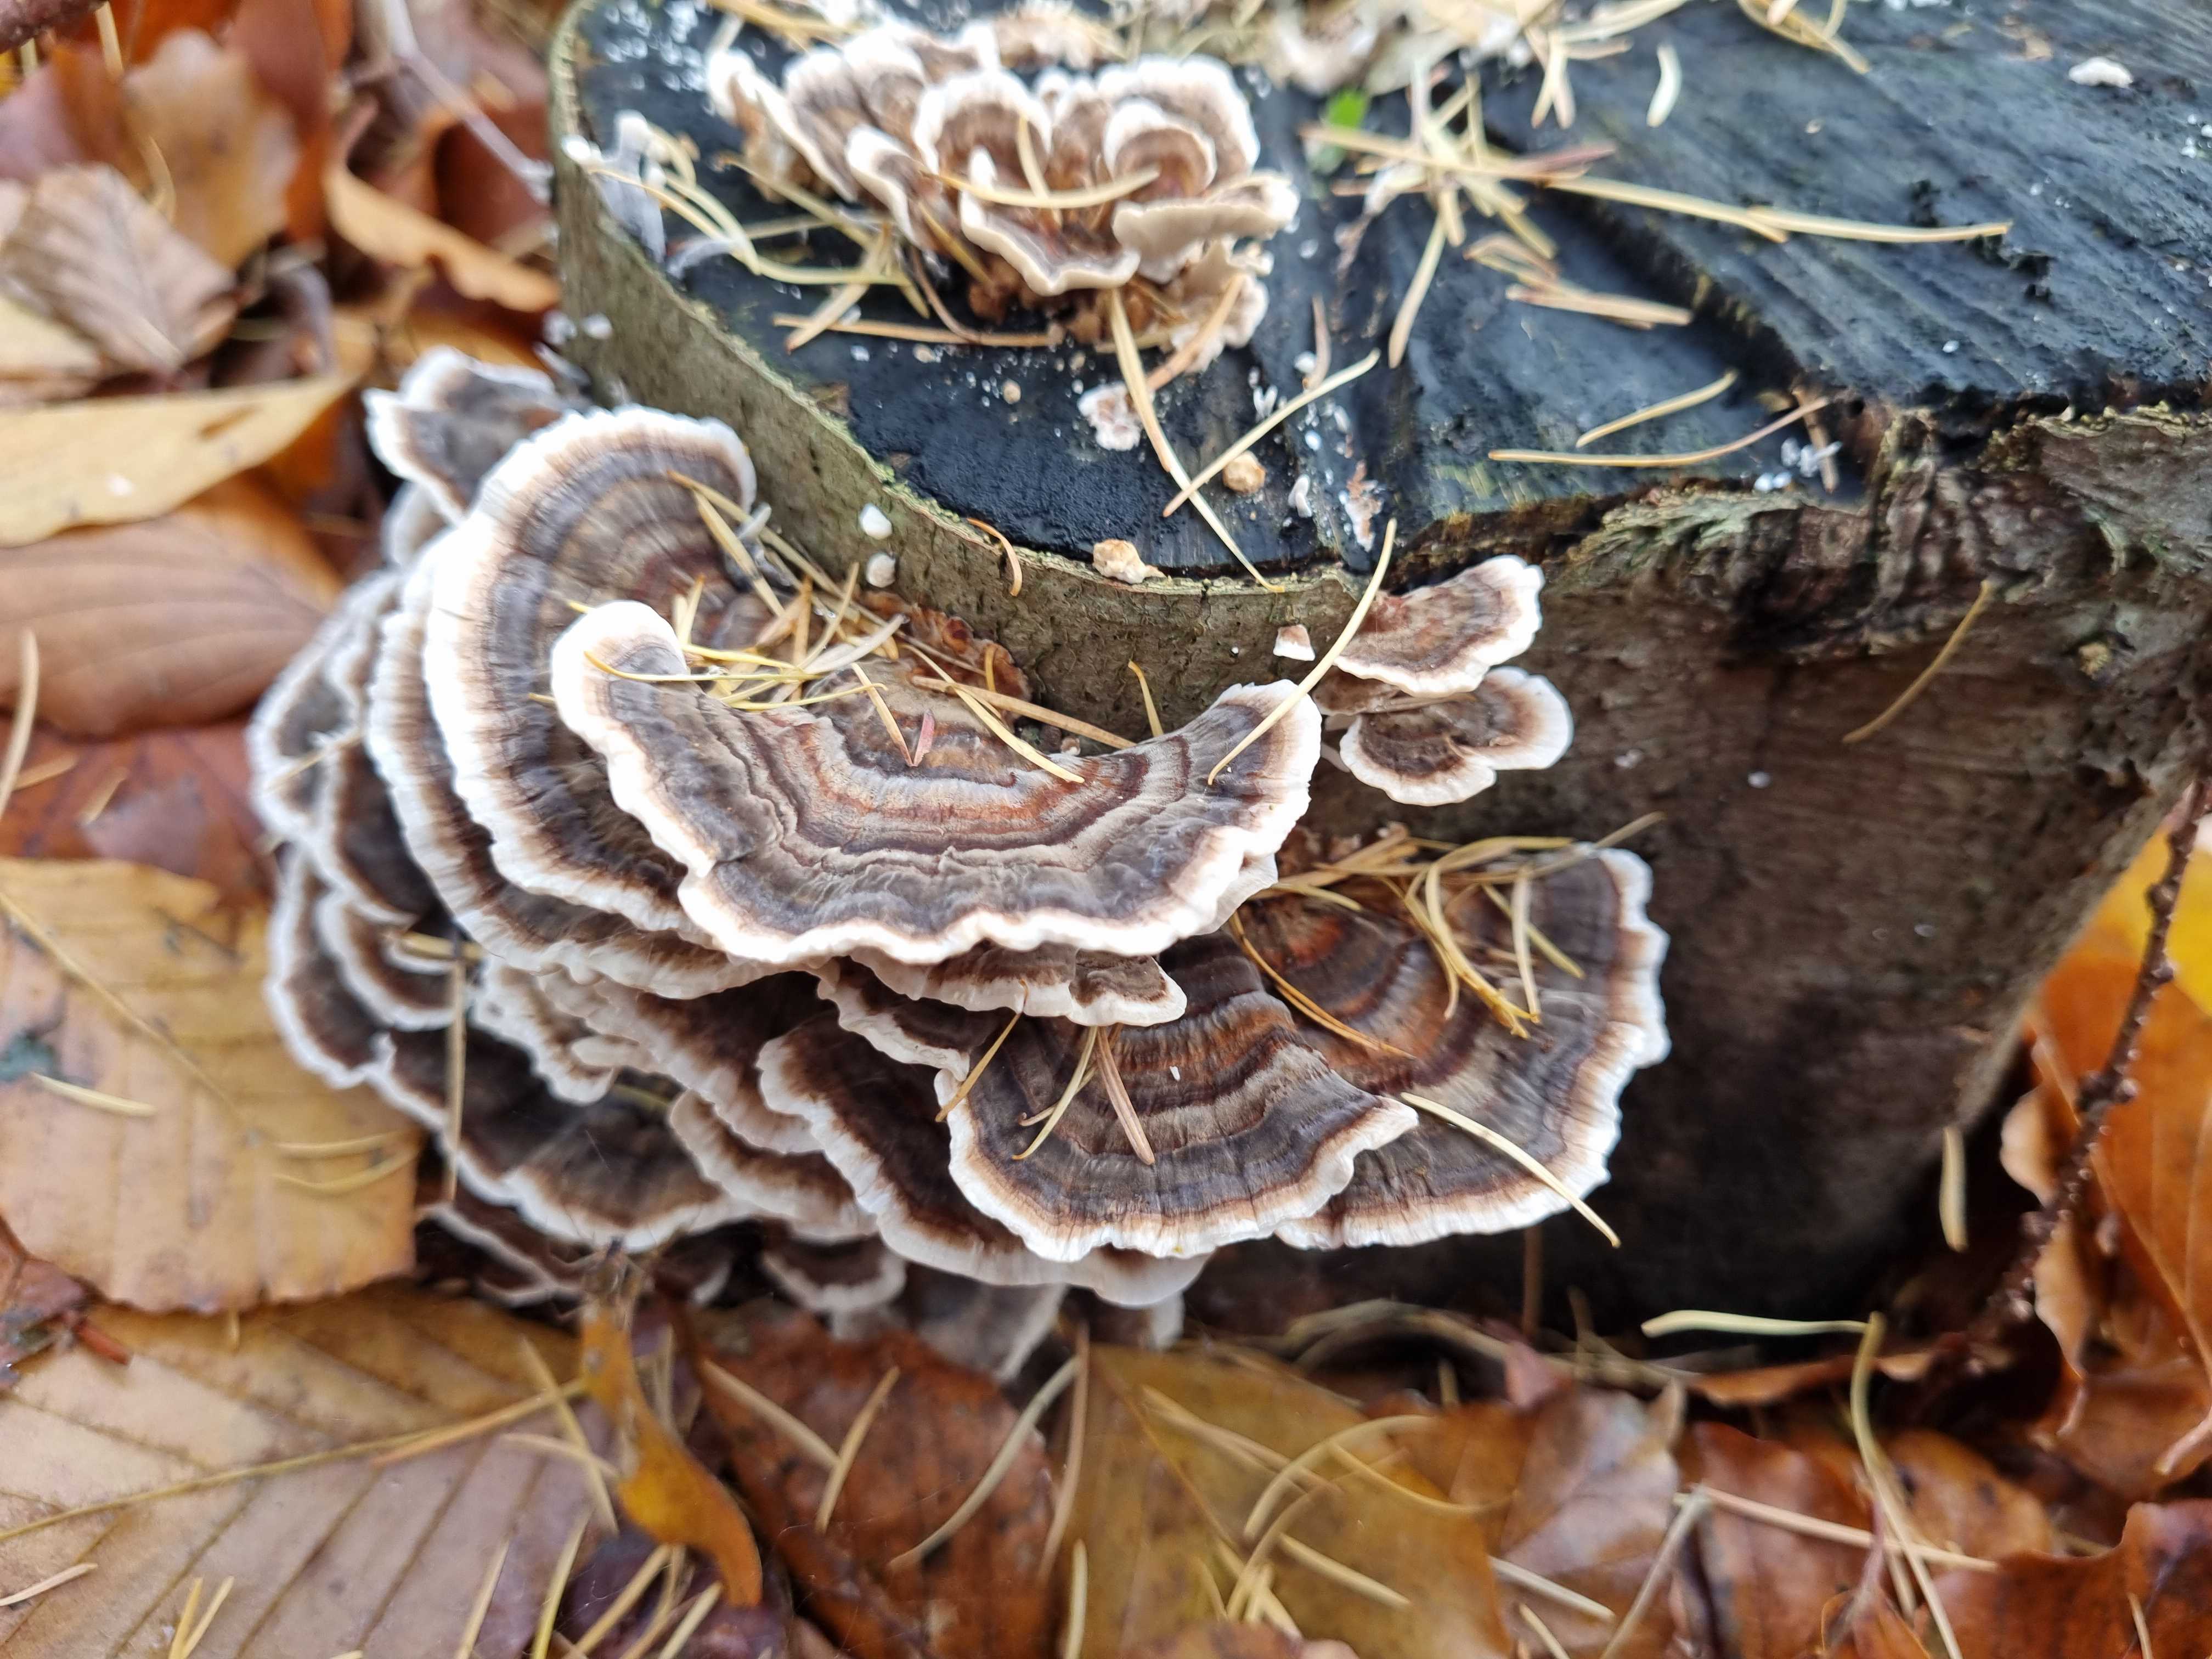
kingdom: Fungi
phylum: Basidiomycota
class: Agaricomycetes
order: Polyporales
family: Polyporaceae
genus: Trametes
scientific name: Trametes versicolor
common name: broget læderporesvamp
